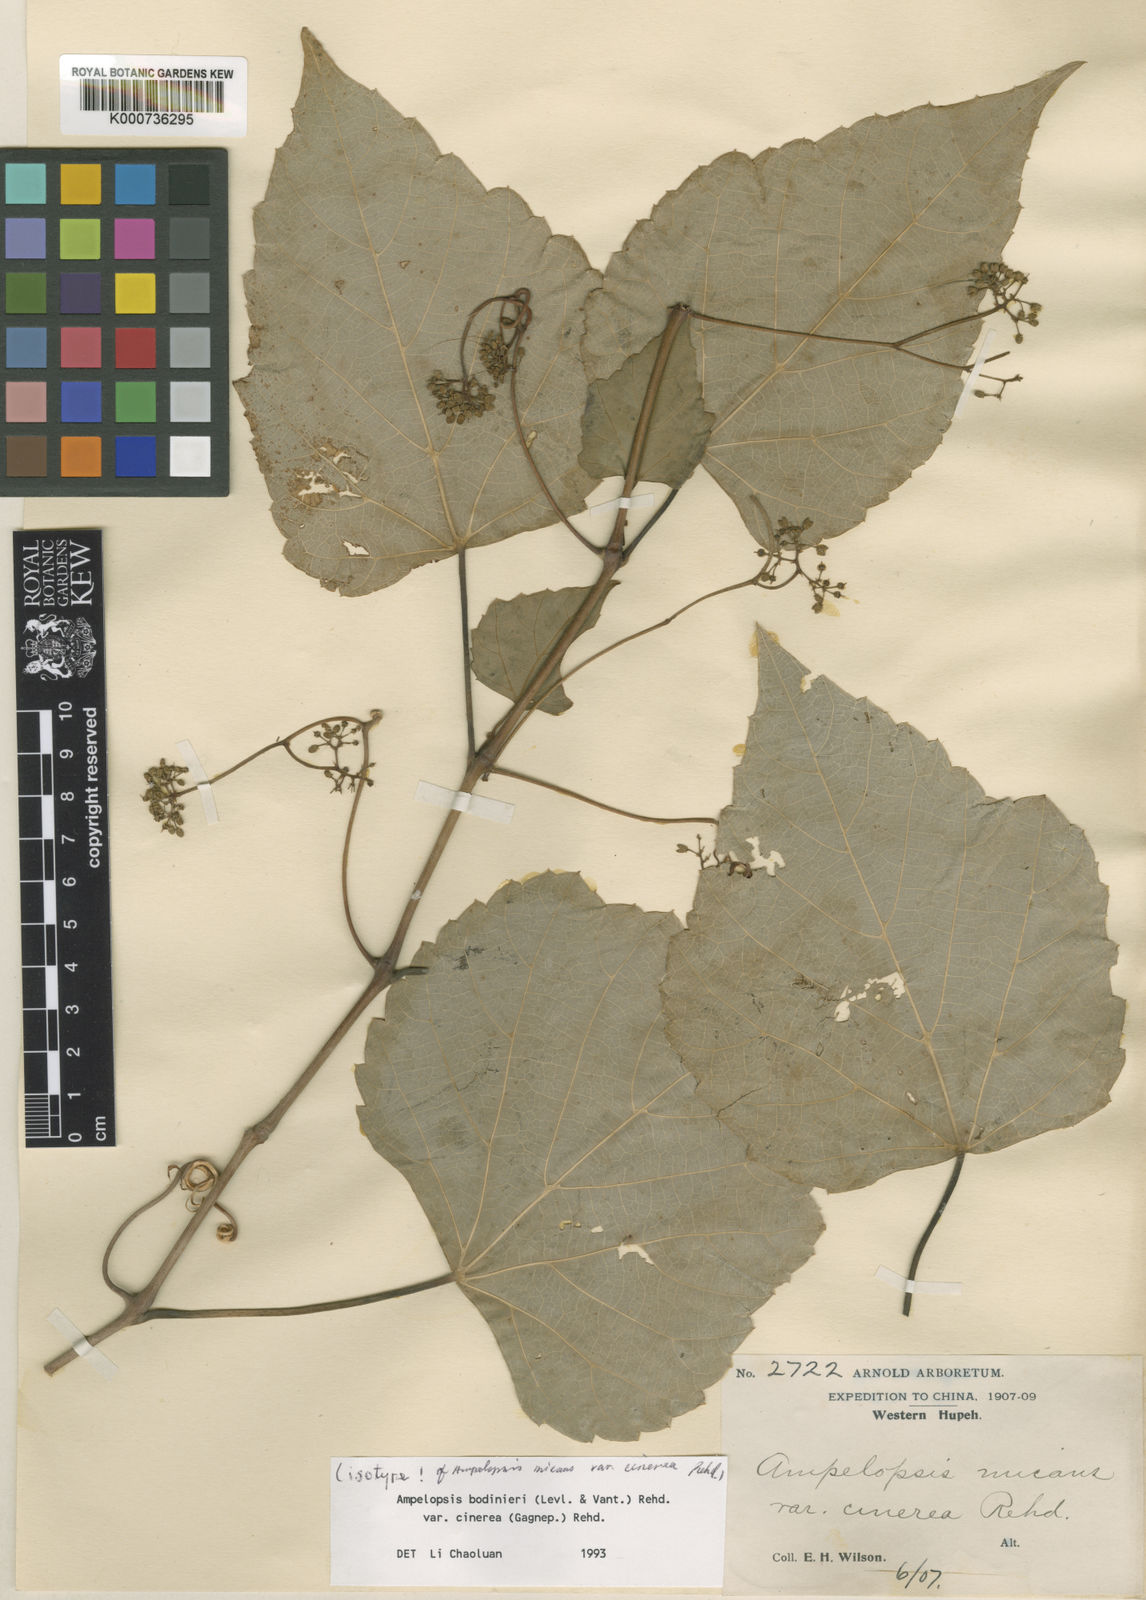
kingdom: Plantae
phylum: Tracheophyta
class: Magnoliopsida
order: Vitales
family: Vitaceae
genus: Ampelopsis
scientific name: Ampelopsis
